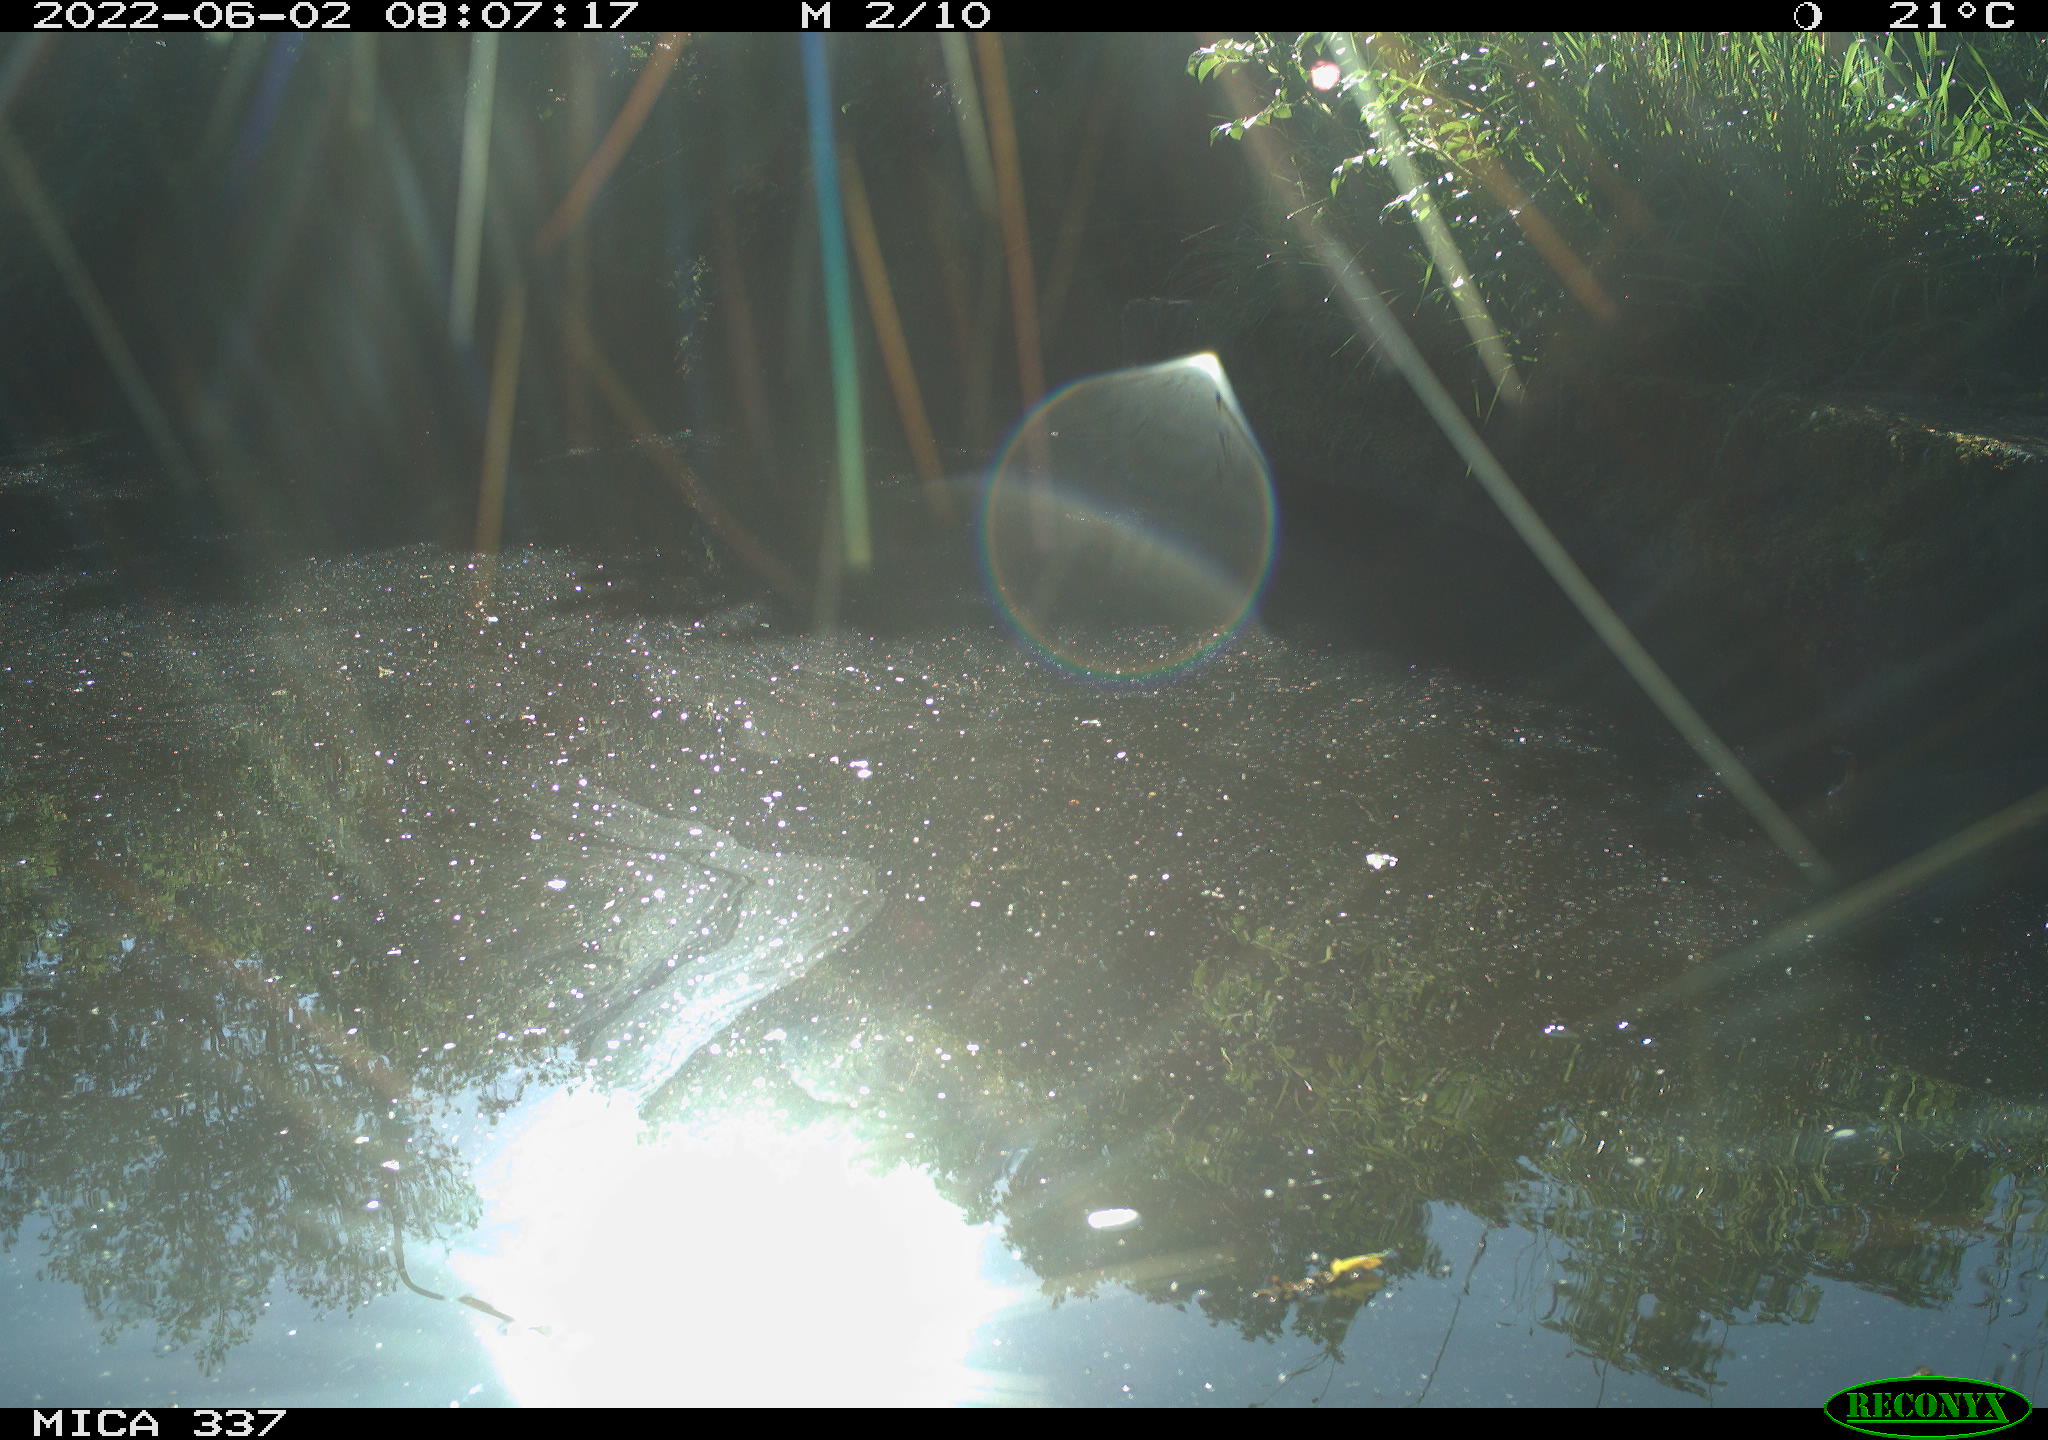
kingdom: Animalia
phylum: Chordata
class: Aves
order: Gruiformes
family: Rallidae
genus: Gallinula
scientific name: Gallinula chloropus
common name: Common moorhen
